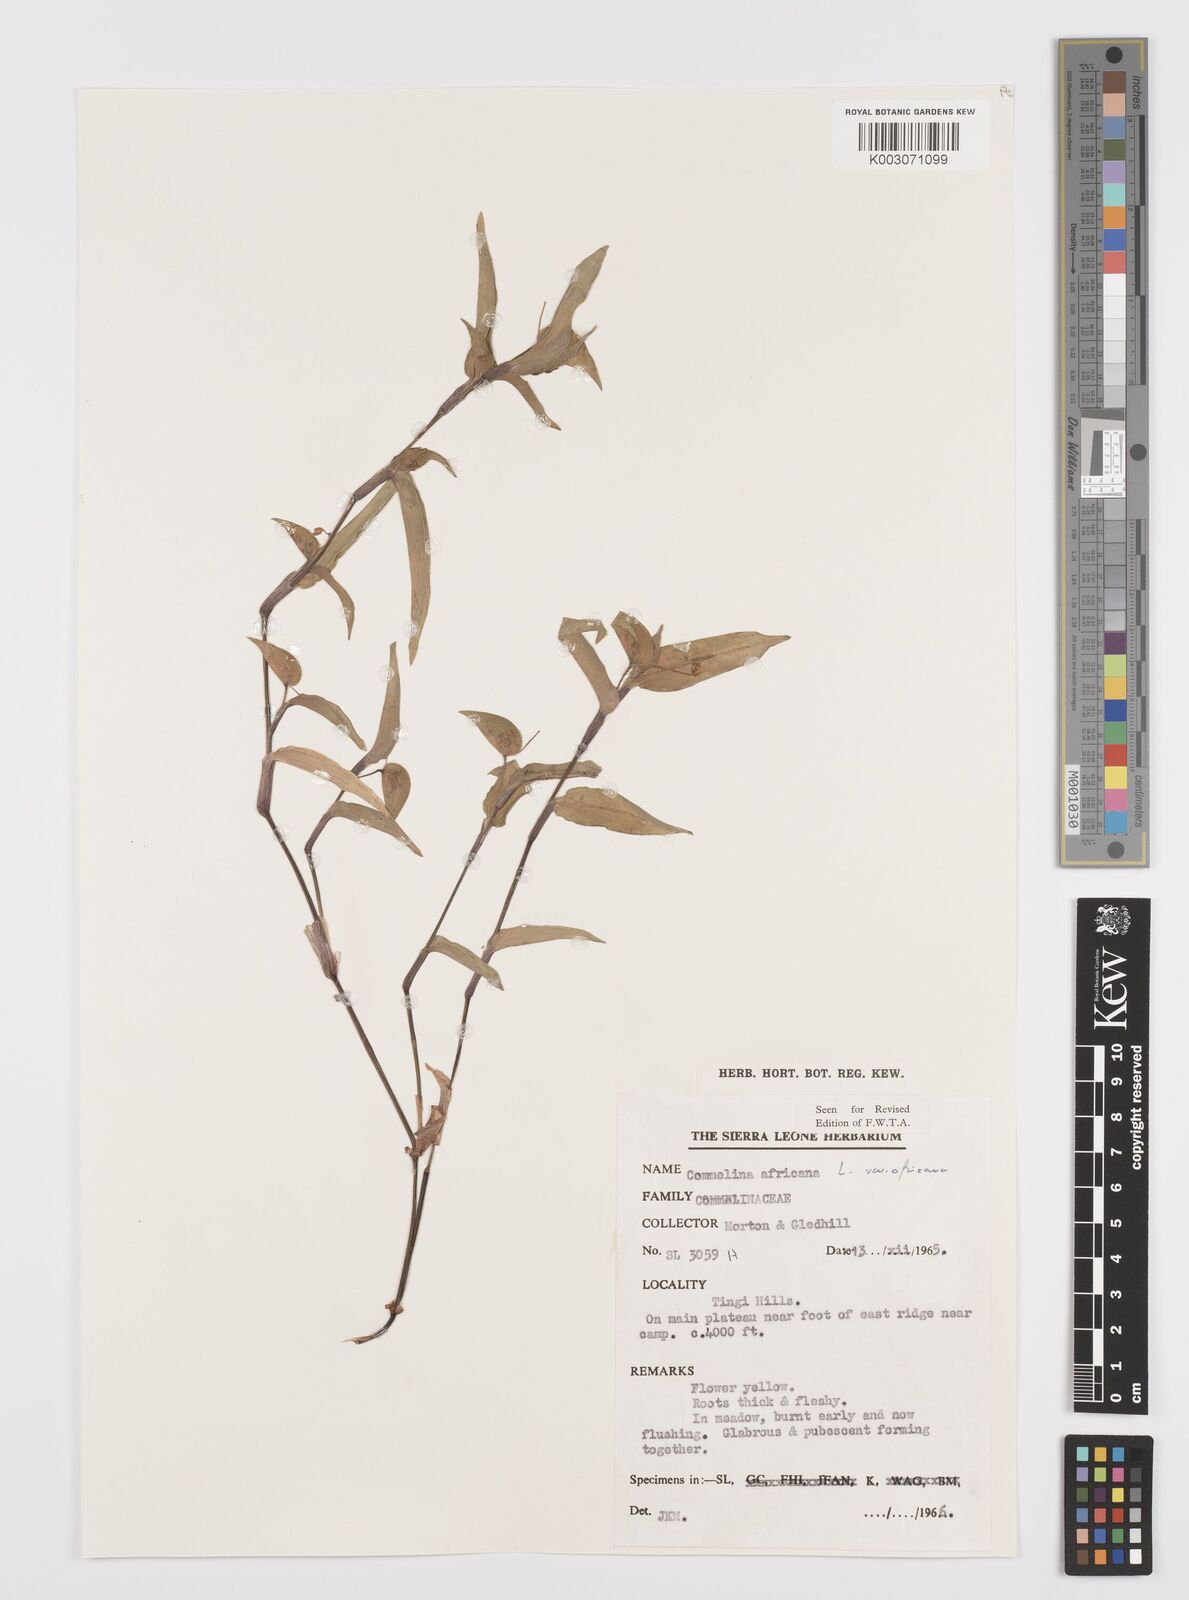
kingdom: Plantae
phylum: Tracheophyta
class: Liliopsida
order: Commelinales
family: Commelinaceae
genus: Commelina
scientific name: Commelina africana
